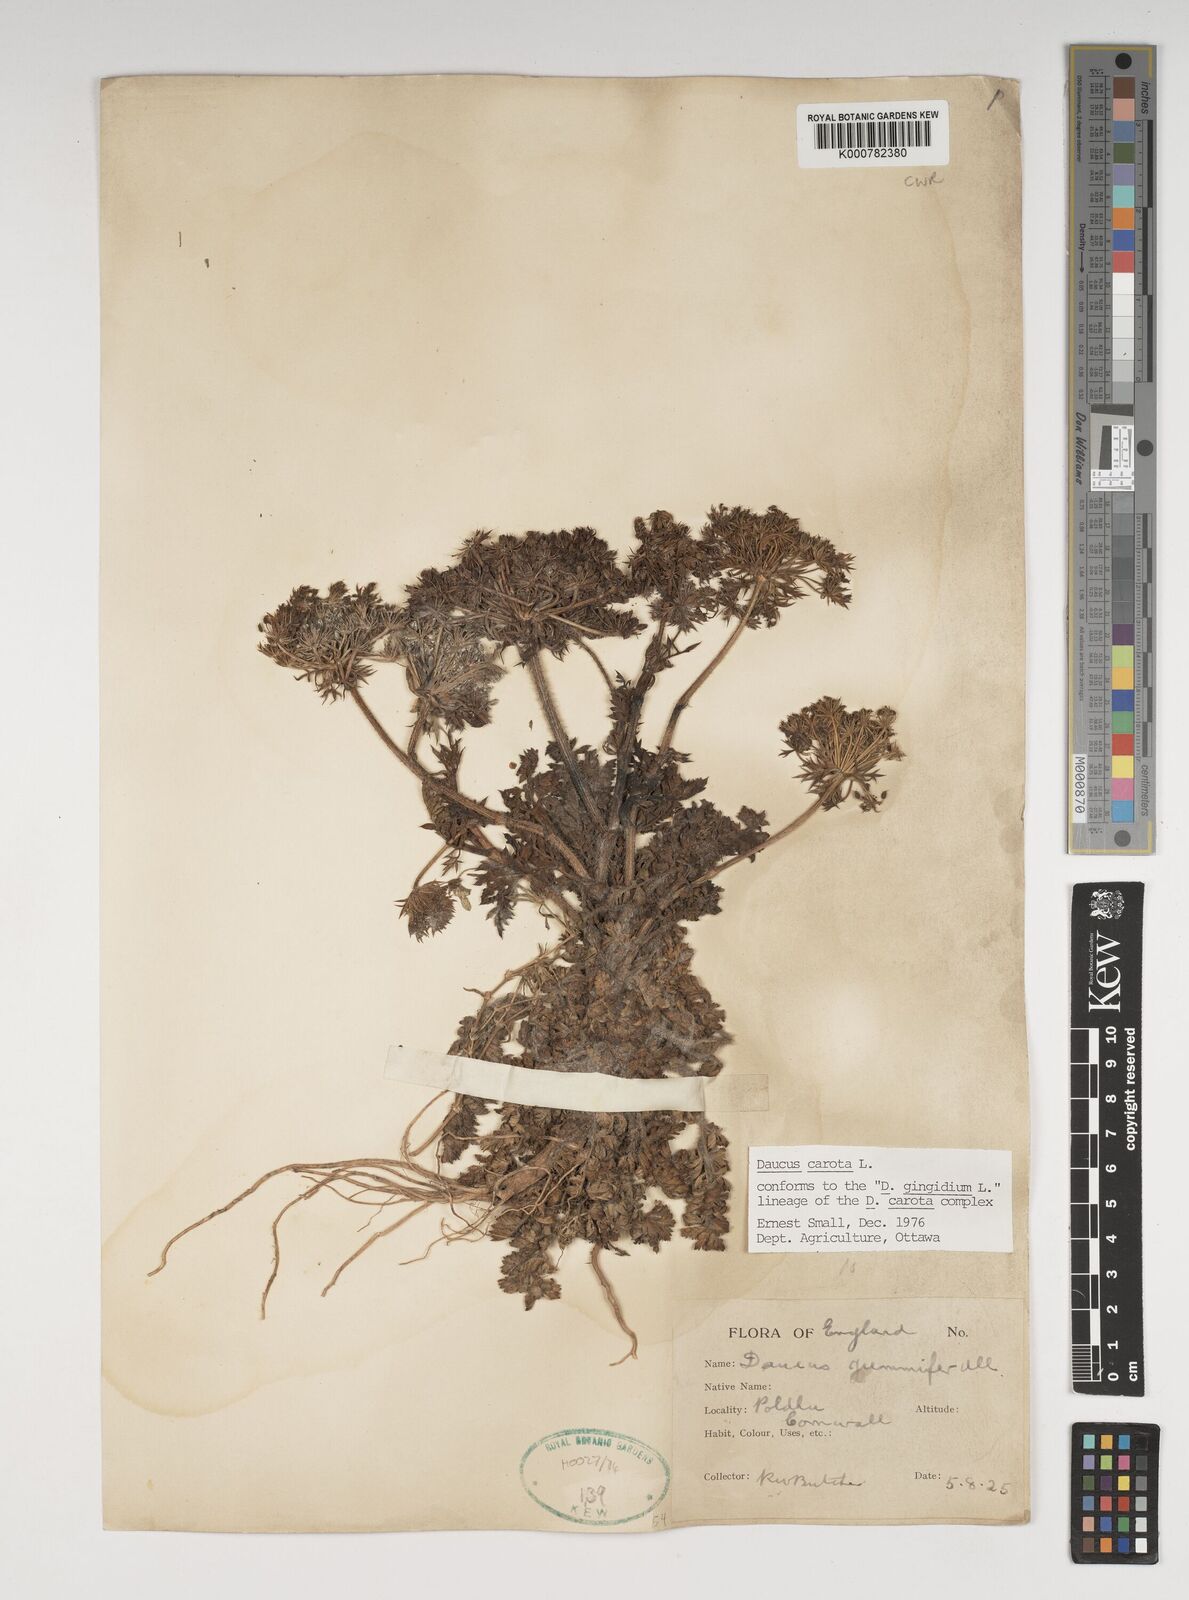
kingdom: Plantae
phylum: Tracheophyta
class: Magnoliopsida
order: Apiales
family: Apiaceae
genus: Daucus
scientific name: Daucus carota
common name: Wild carrot
